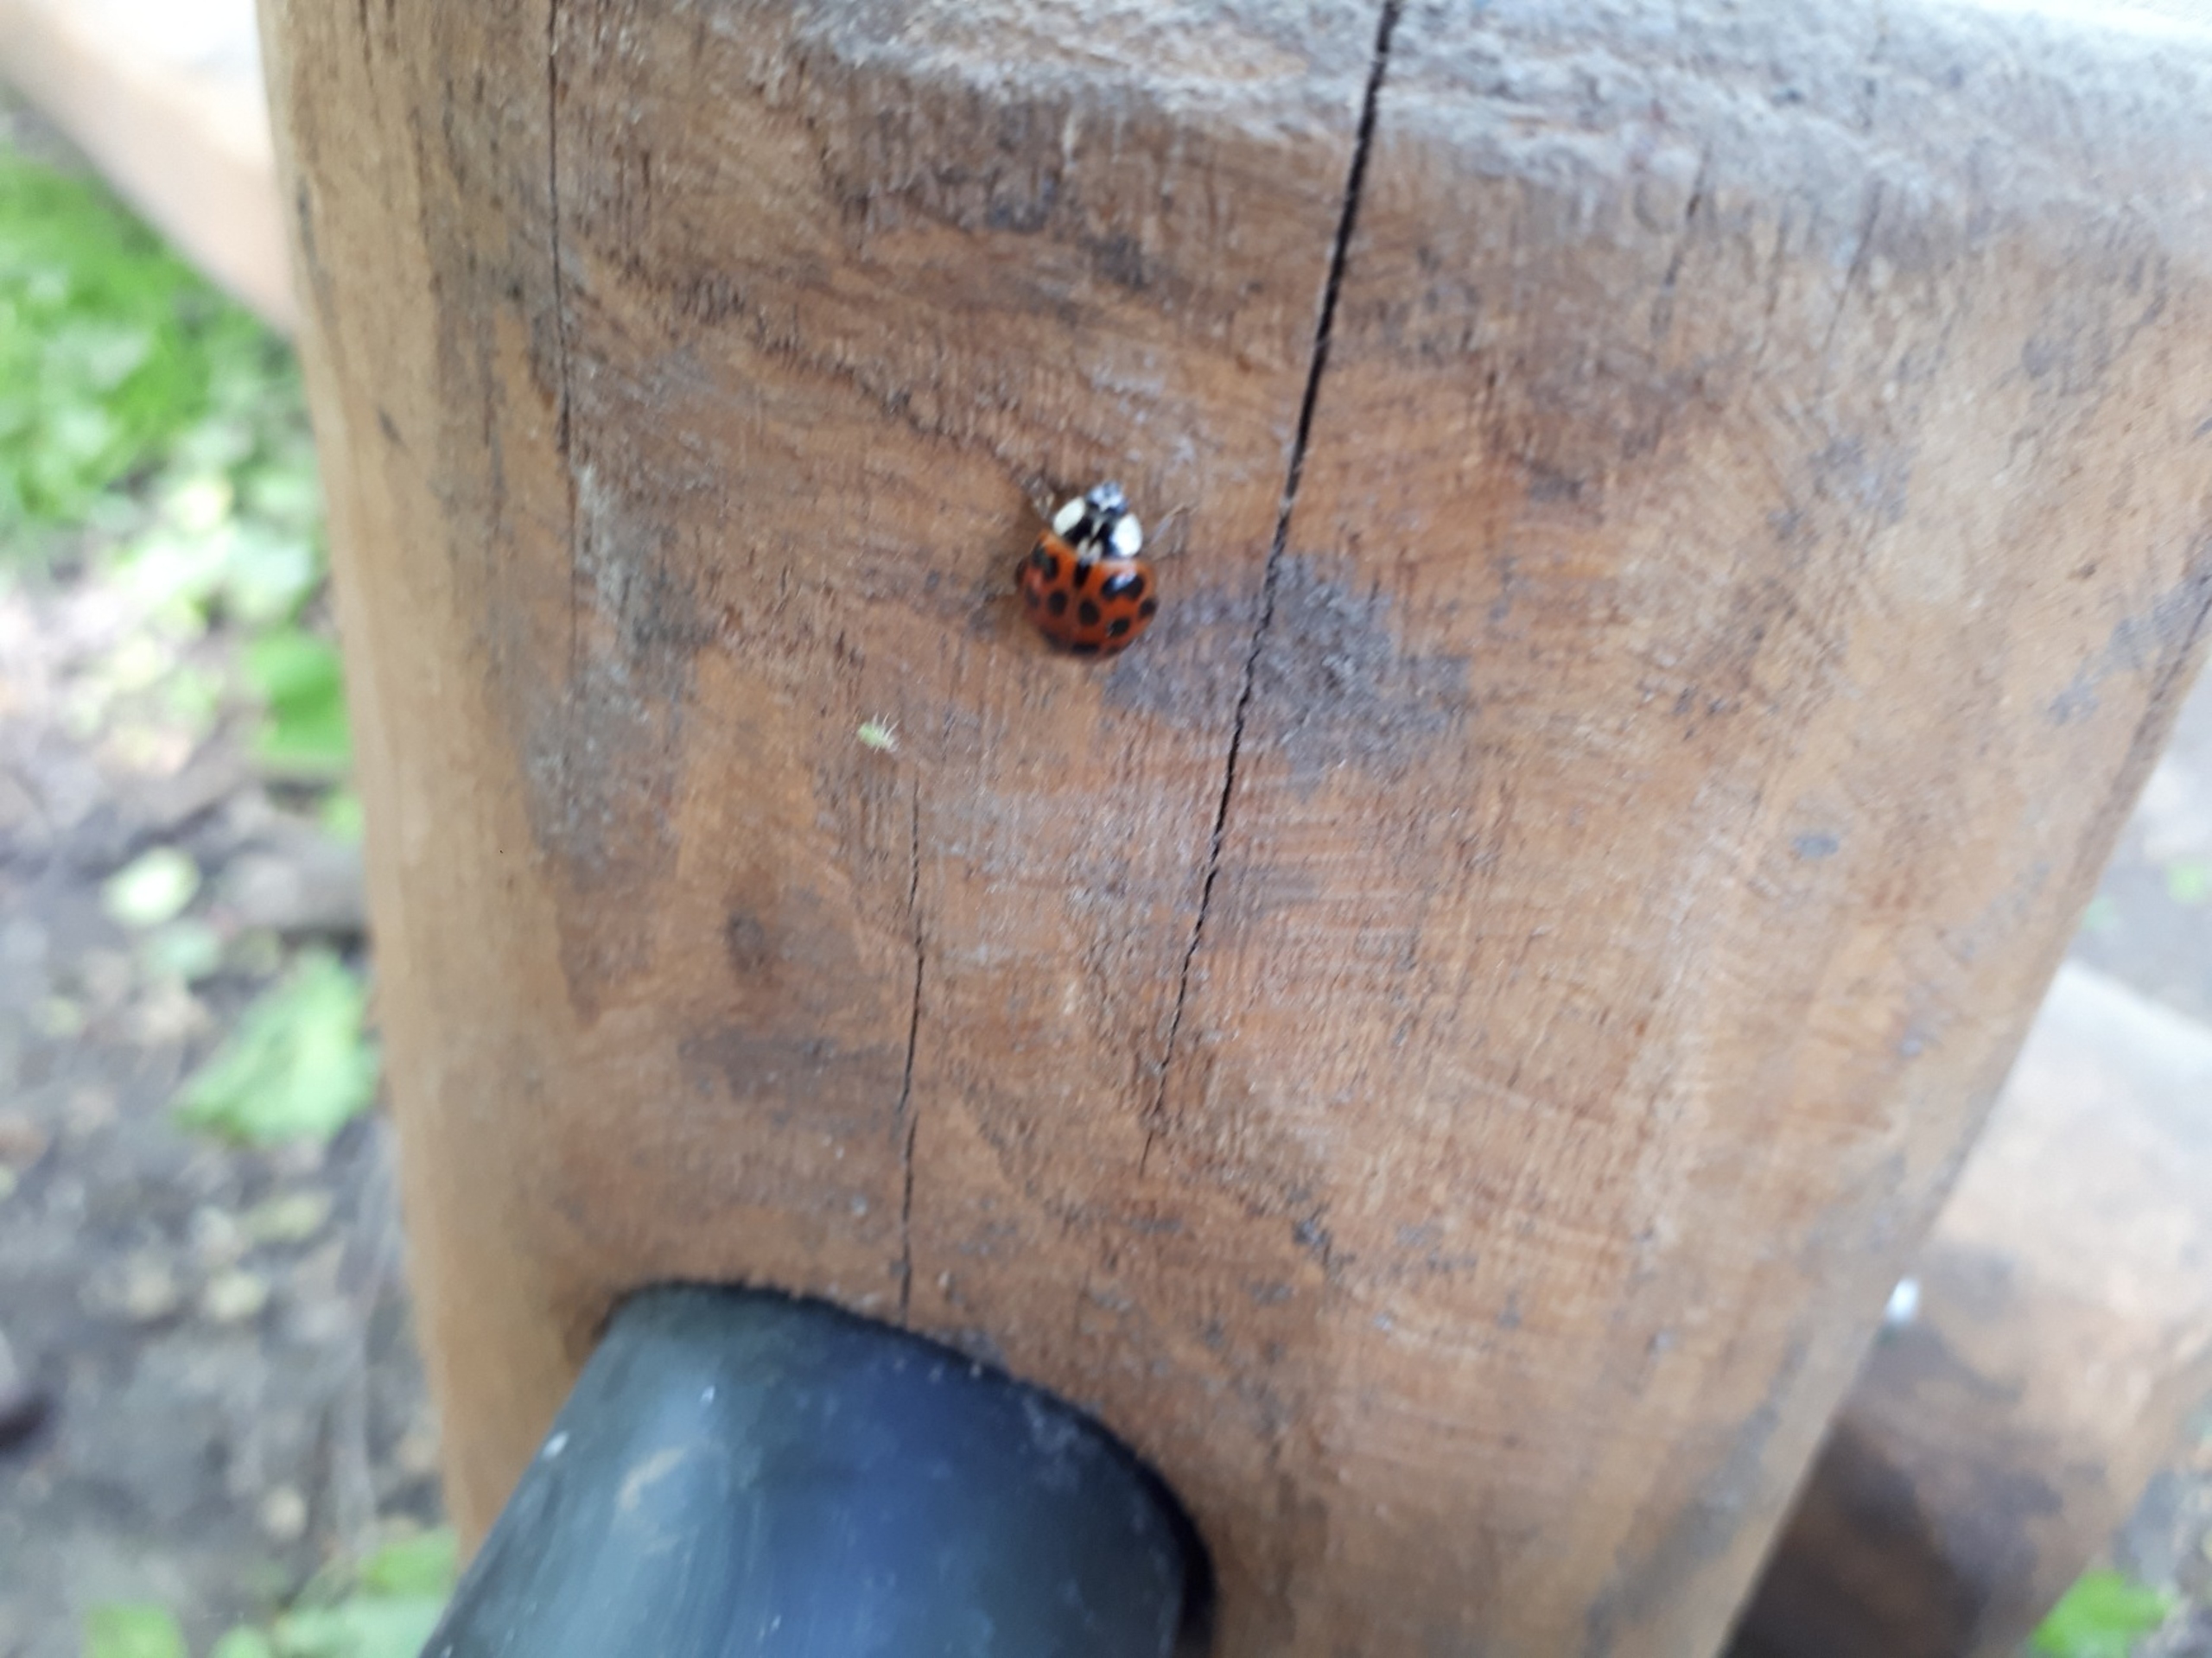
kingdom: Animalia
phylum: Arthropoda
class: Insecta
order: Coleoptera
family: Coccinellidae
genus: Harmonia
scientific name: Harmonia axyridis
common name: Harlekinmariehøne
